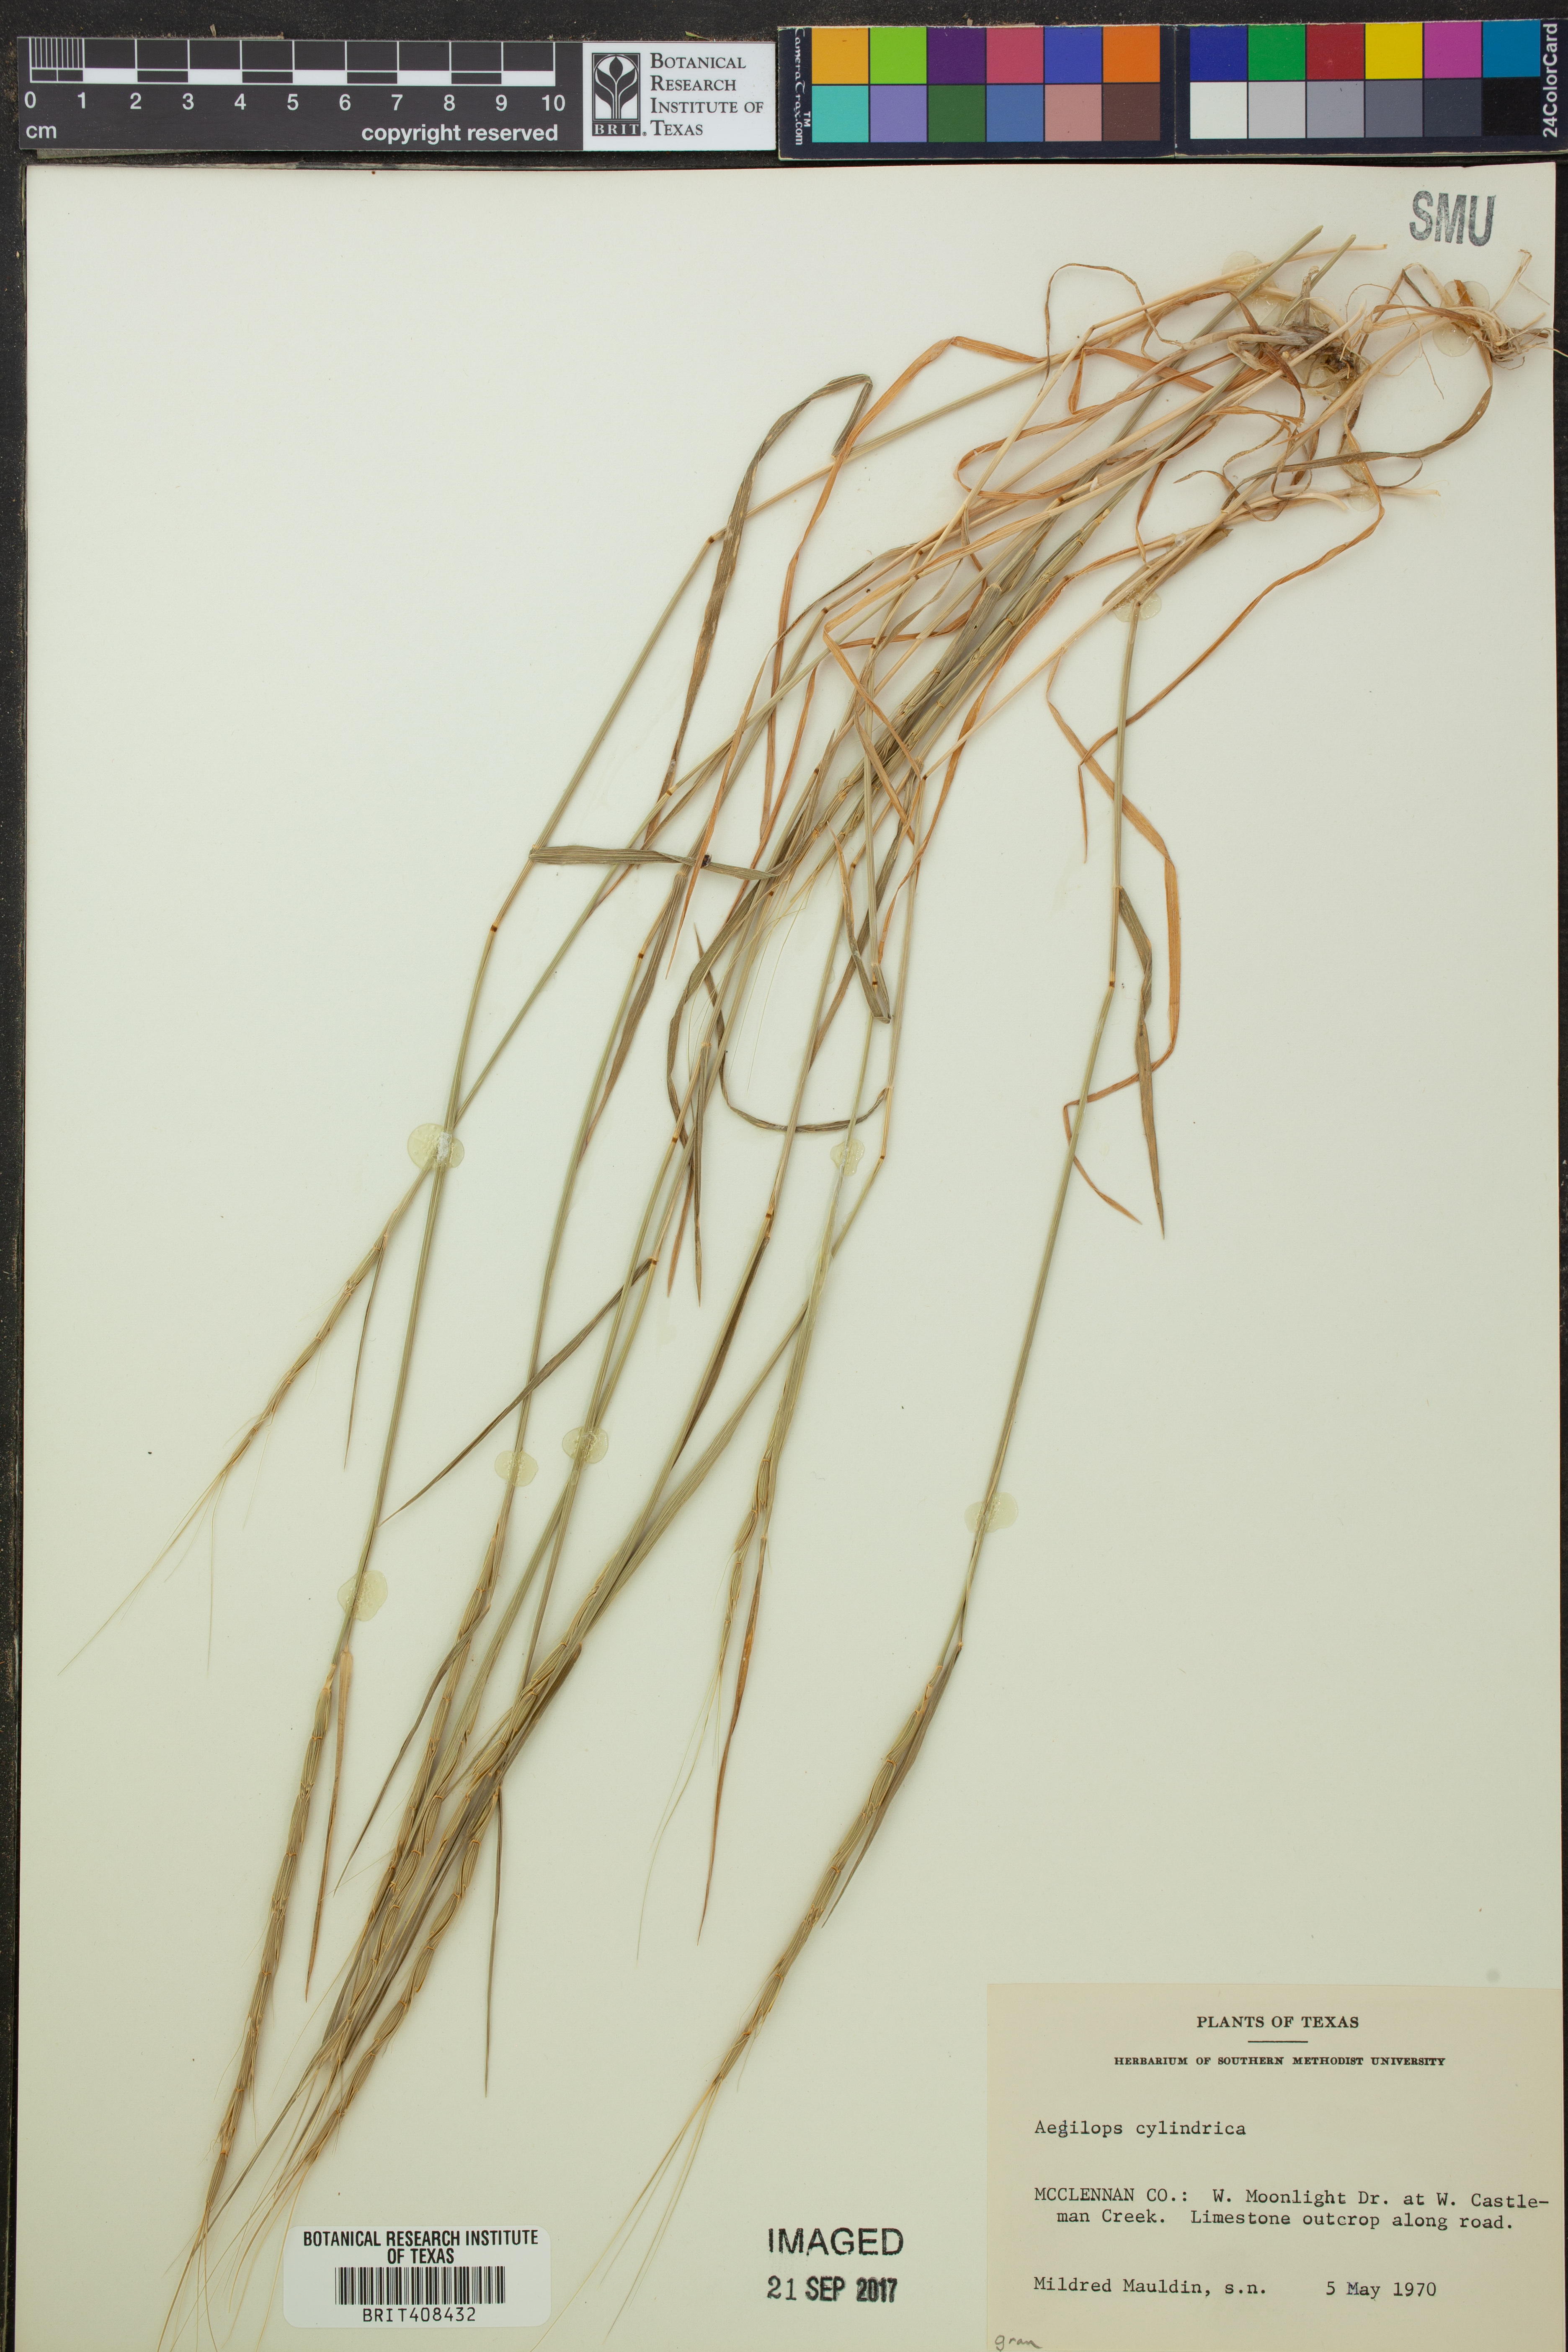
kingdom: Plantae
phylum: Tracheophyta
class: Liliopsida
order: Poales
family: Poaceae
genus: Aegilops
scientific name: Aegilops cylindrica
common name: Jointed goatgrass
